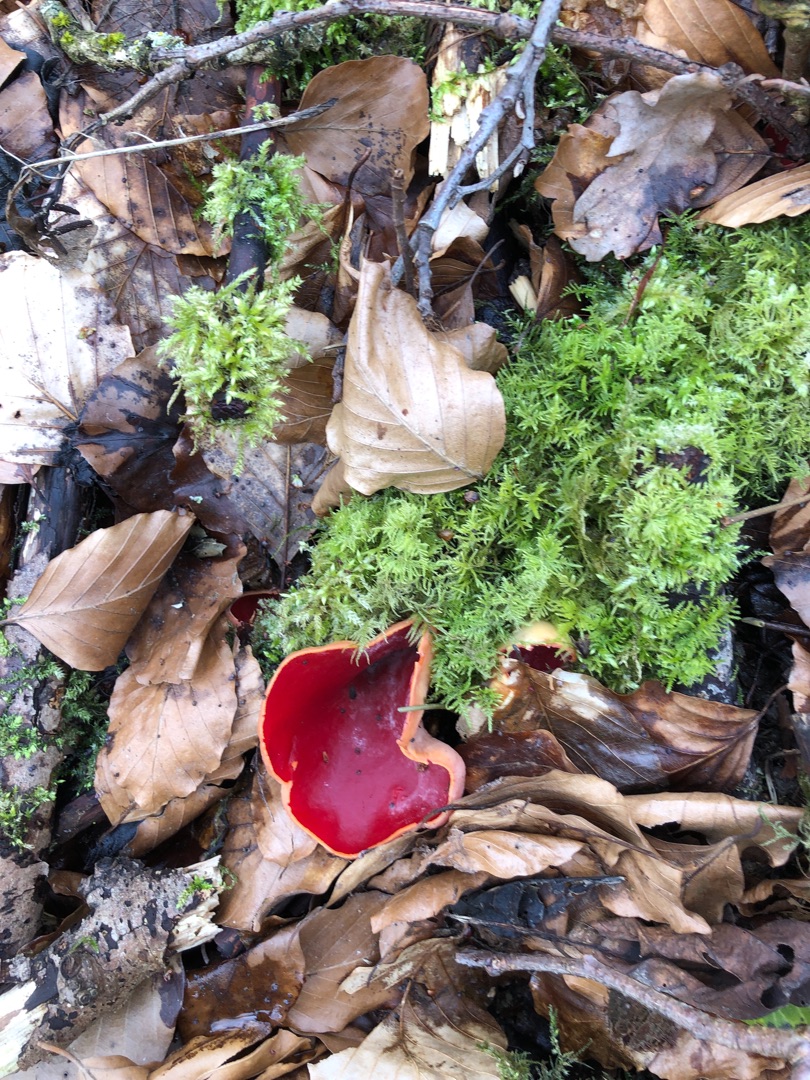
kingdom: Fungi
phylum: Ascomycota
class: Pezizomycetes
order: Pezizales
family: Sarcoscyphaceae
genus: Sarcoscypha
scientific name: Sarcoscypha
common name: Pragtbæger
